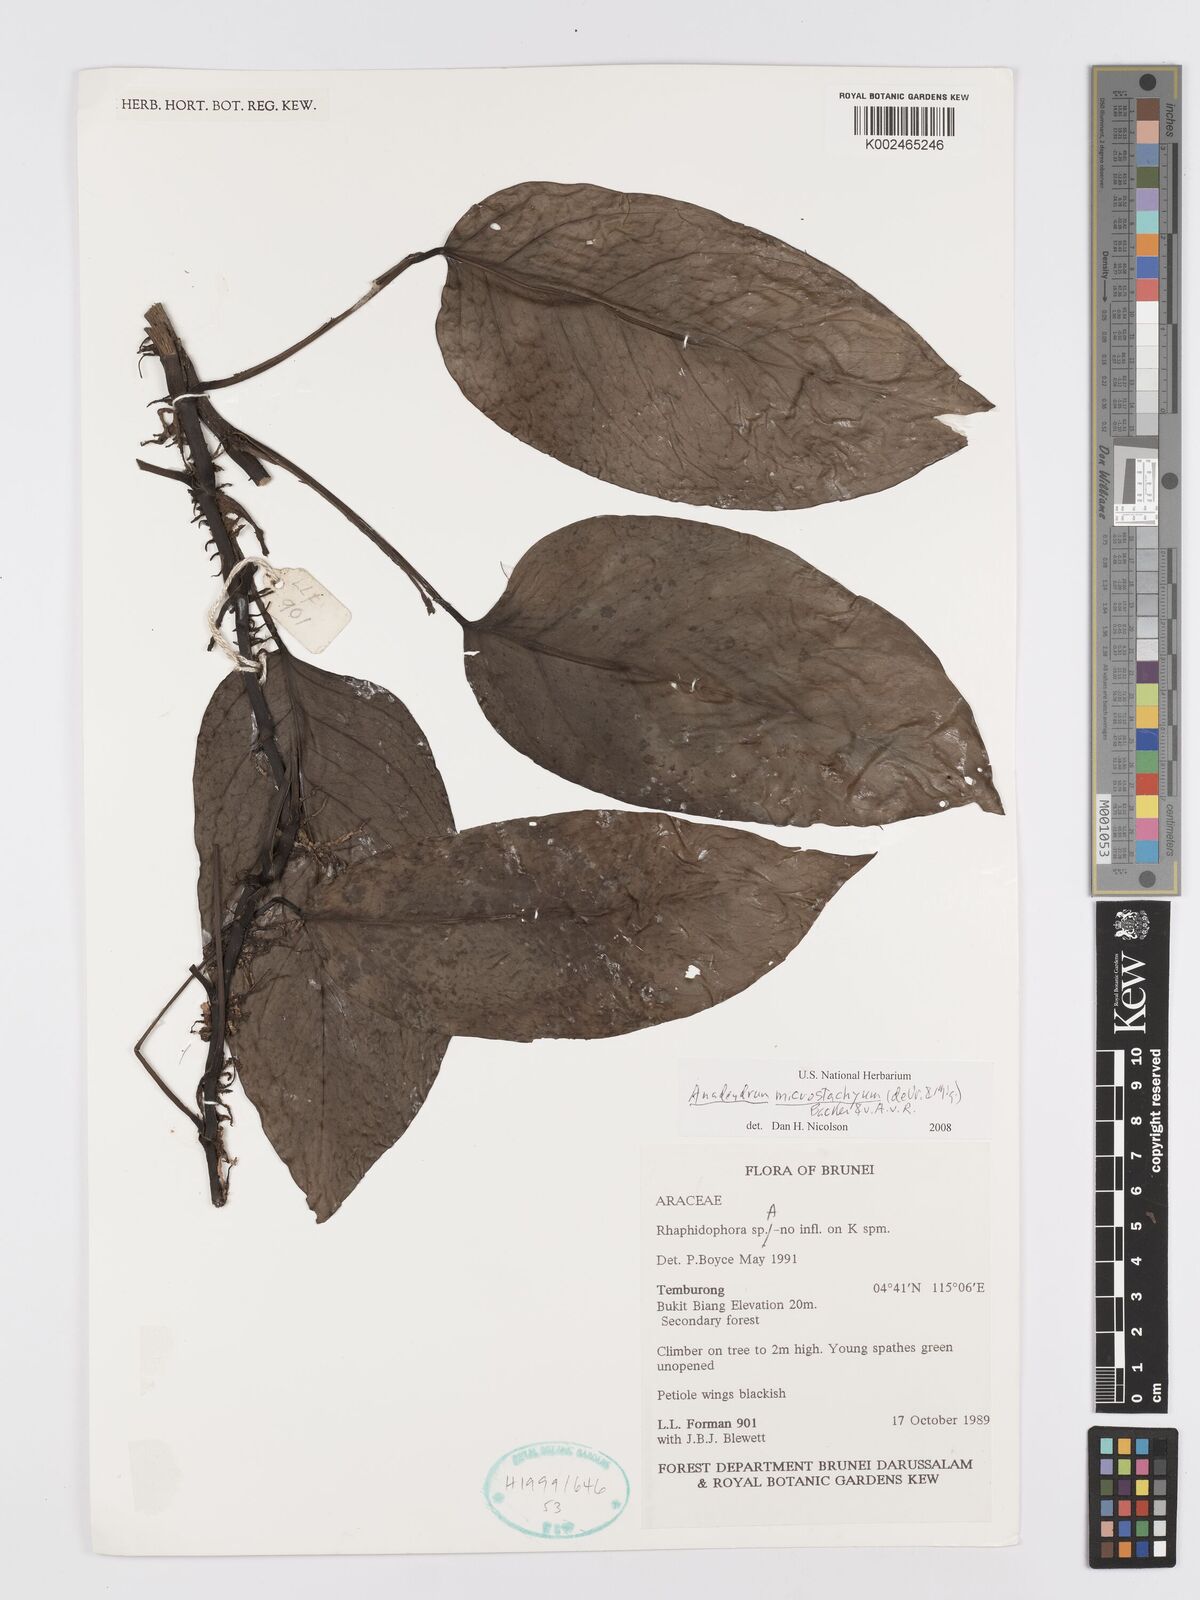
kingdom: Plantae
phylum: Tracheophyta
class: Liliopsida
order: Alismatales
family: Araceae
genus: Anadendrum
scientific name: Anadendrum microstachyum
